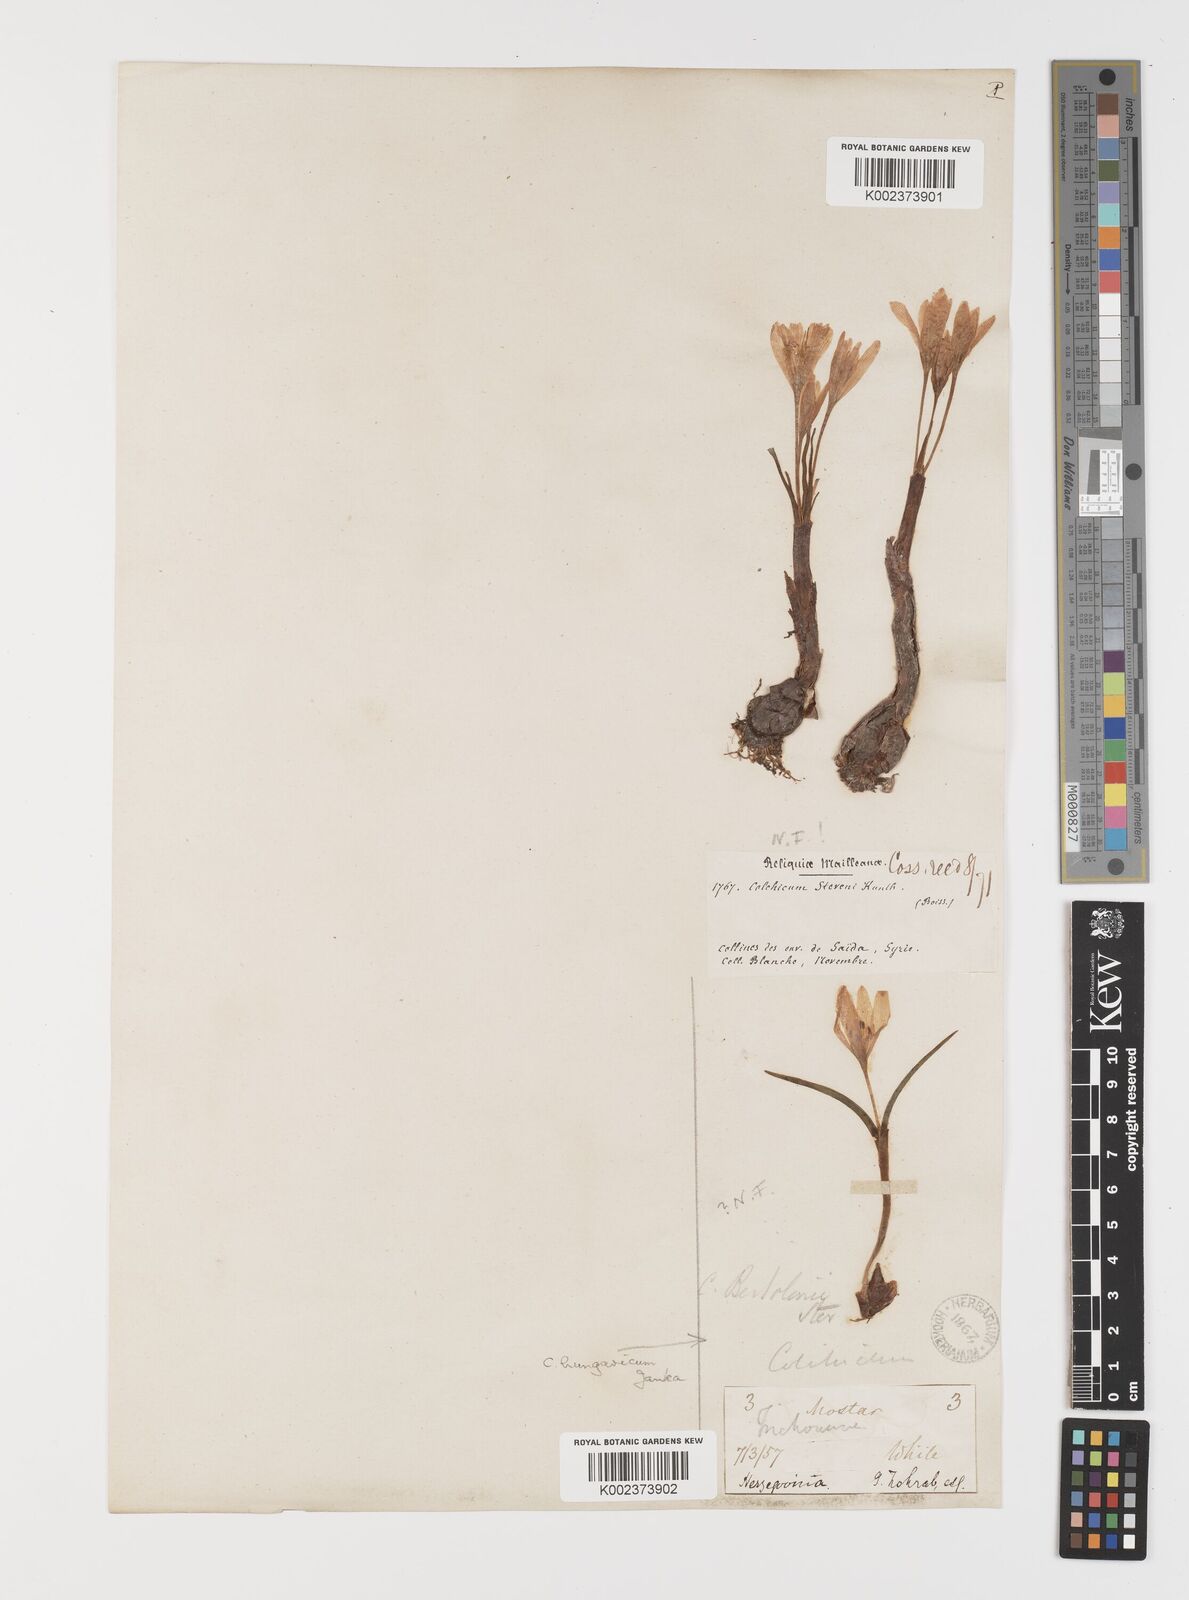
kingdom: Plantae
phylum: Tracheophyta
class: Liliopsida
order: Liliales
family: Colchicaceae
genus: Colchicum
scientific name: Colchicum stevenii
